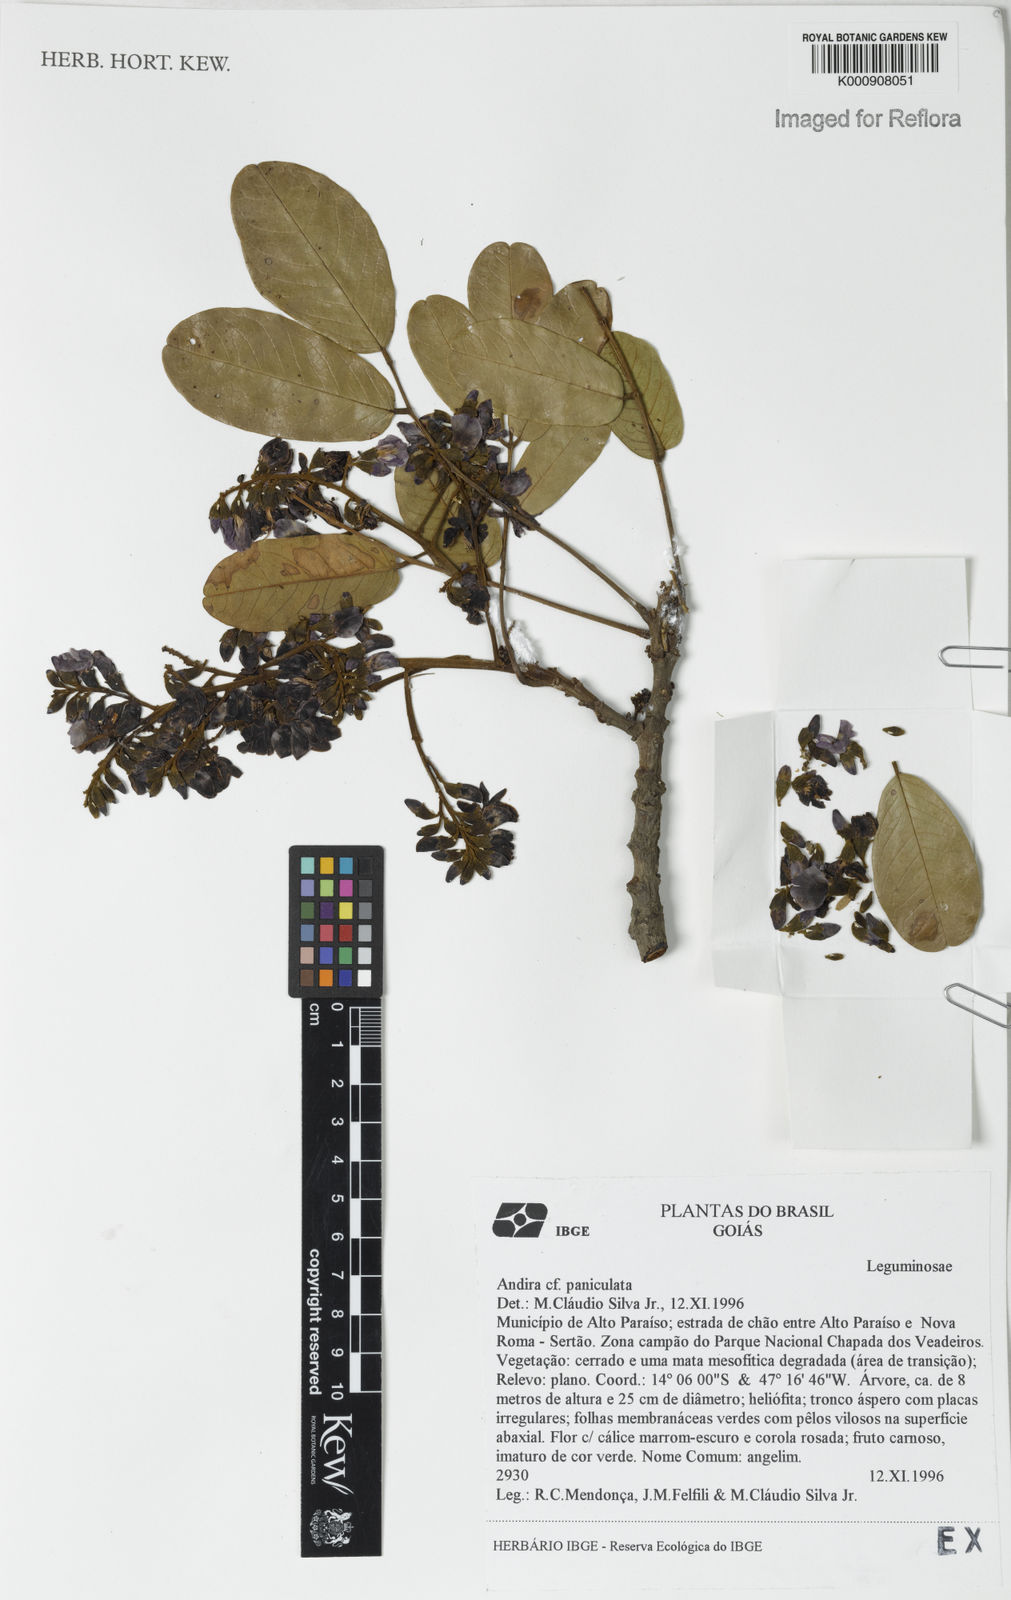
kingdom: Plantae
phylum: Tracheophyta
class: Magnoliopsida
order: Fabales
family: Fabaceae
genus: Andira
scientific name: Andira
